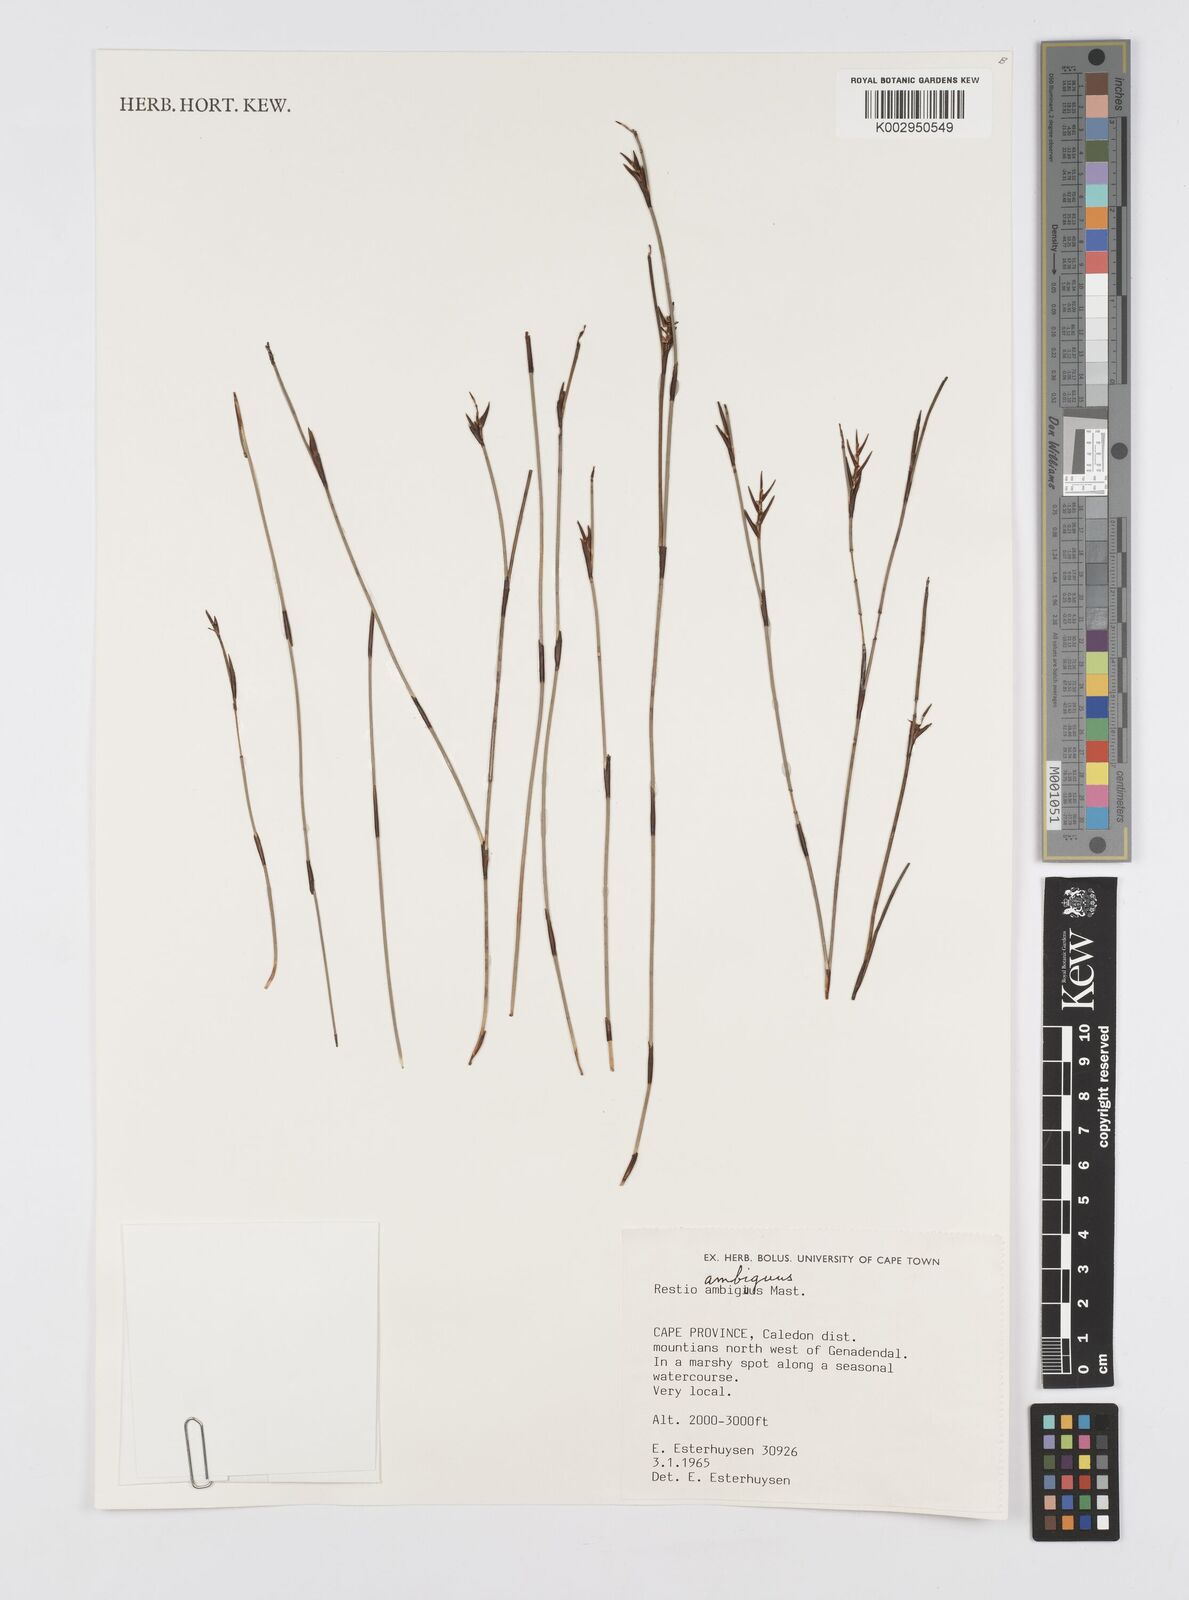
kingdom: Plantae
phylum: Tracheophyta
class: Liliopsida
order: Poales
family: Restionaceae
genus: Soroveta
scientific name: Soroveta ambigua
